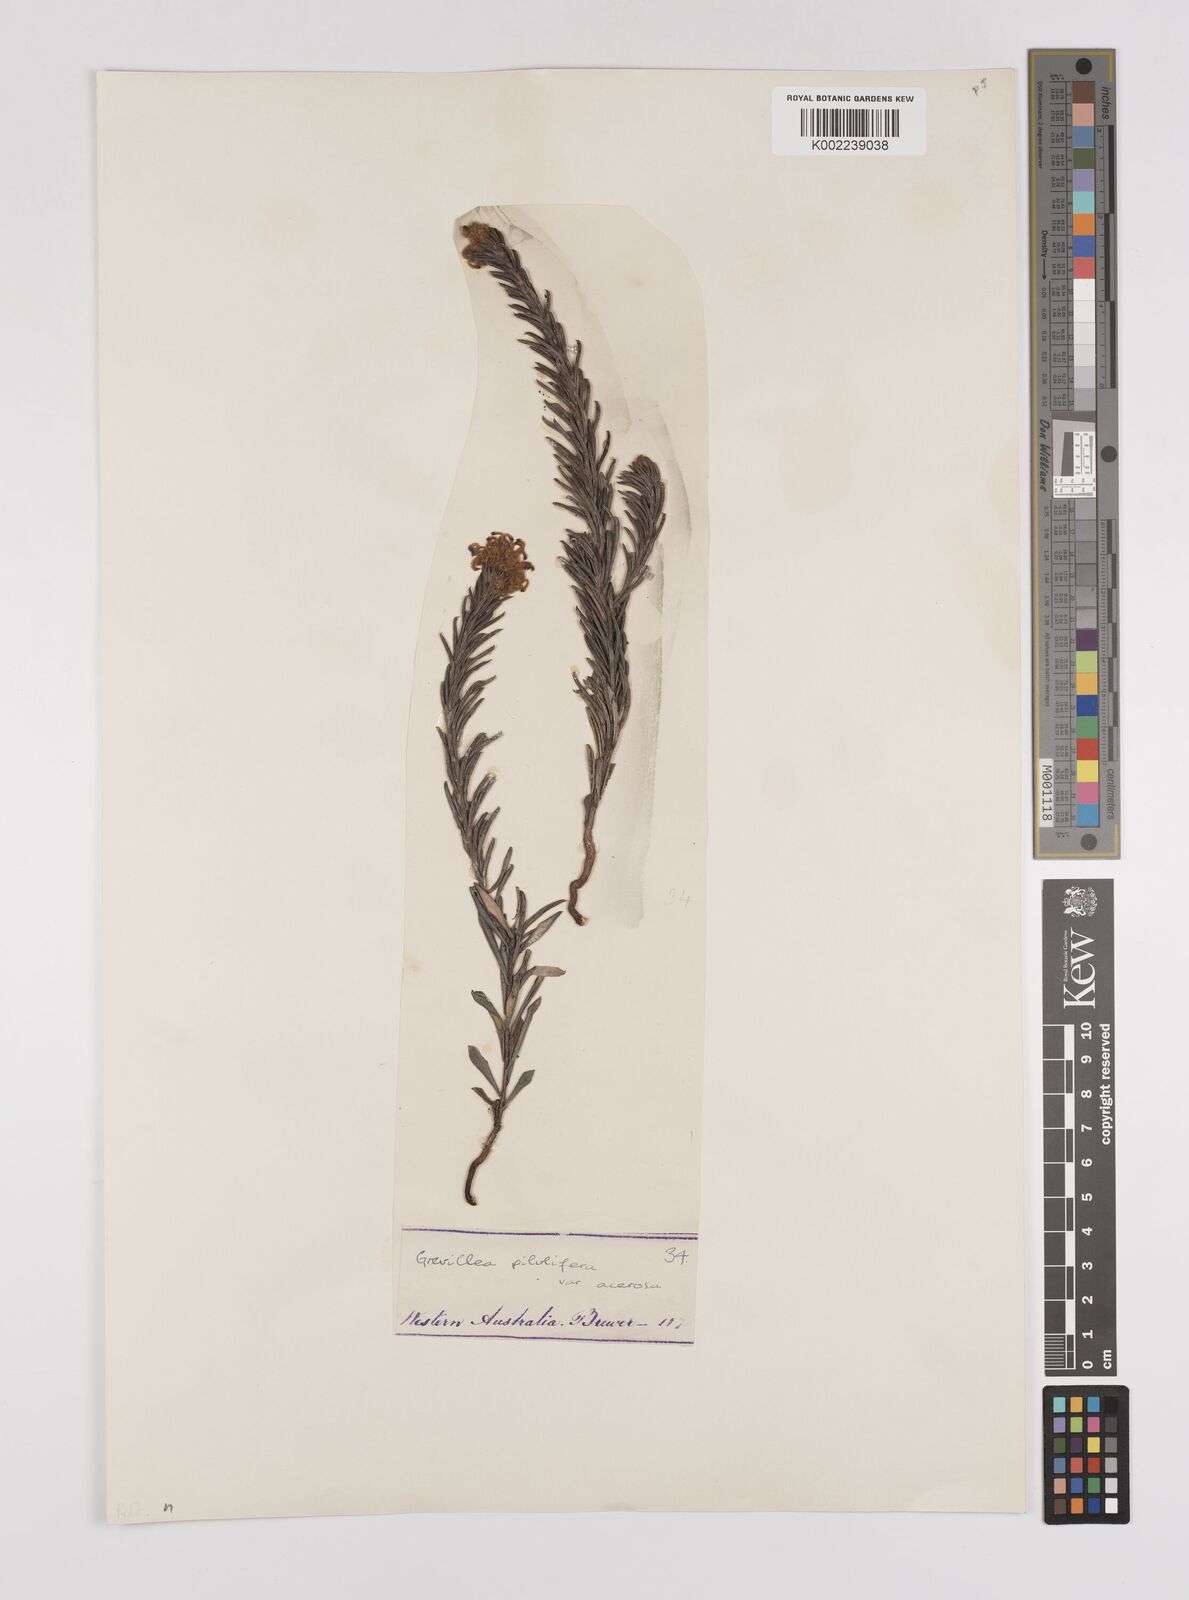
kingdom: Plantae
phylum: Tracheophyta
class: Magnoliopsida
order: Proteales
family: Proteaceae
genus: Grevillea
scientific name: Grevillea pilulifera
